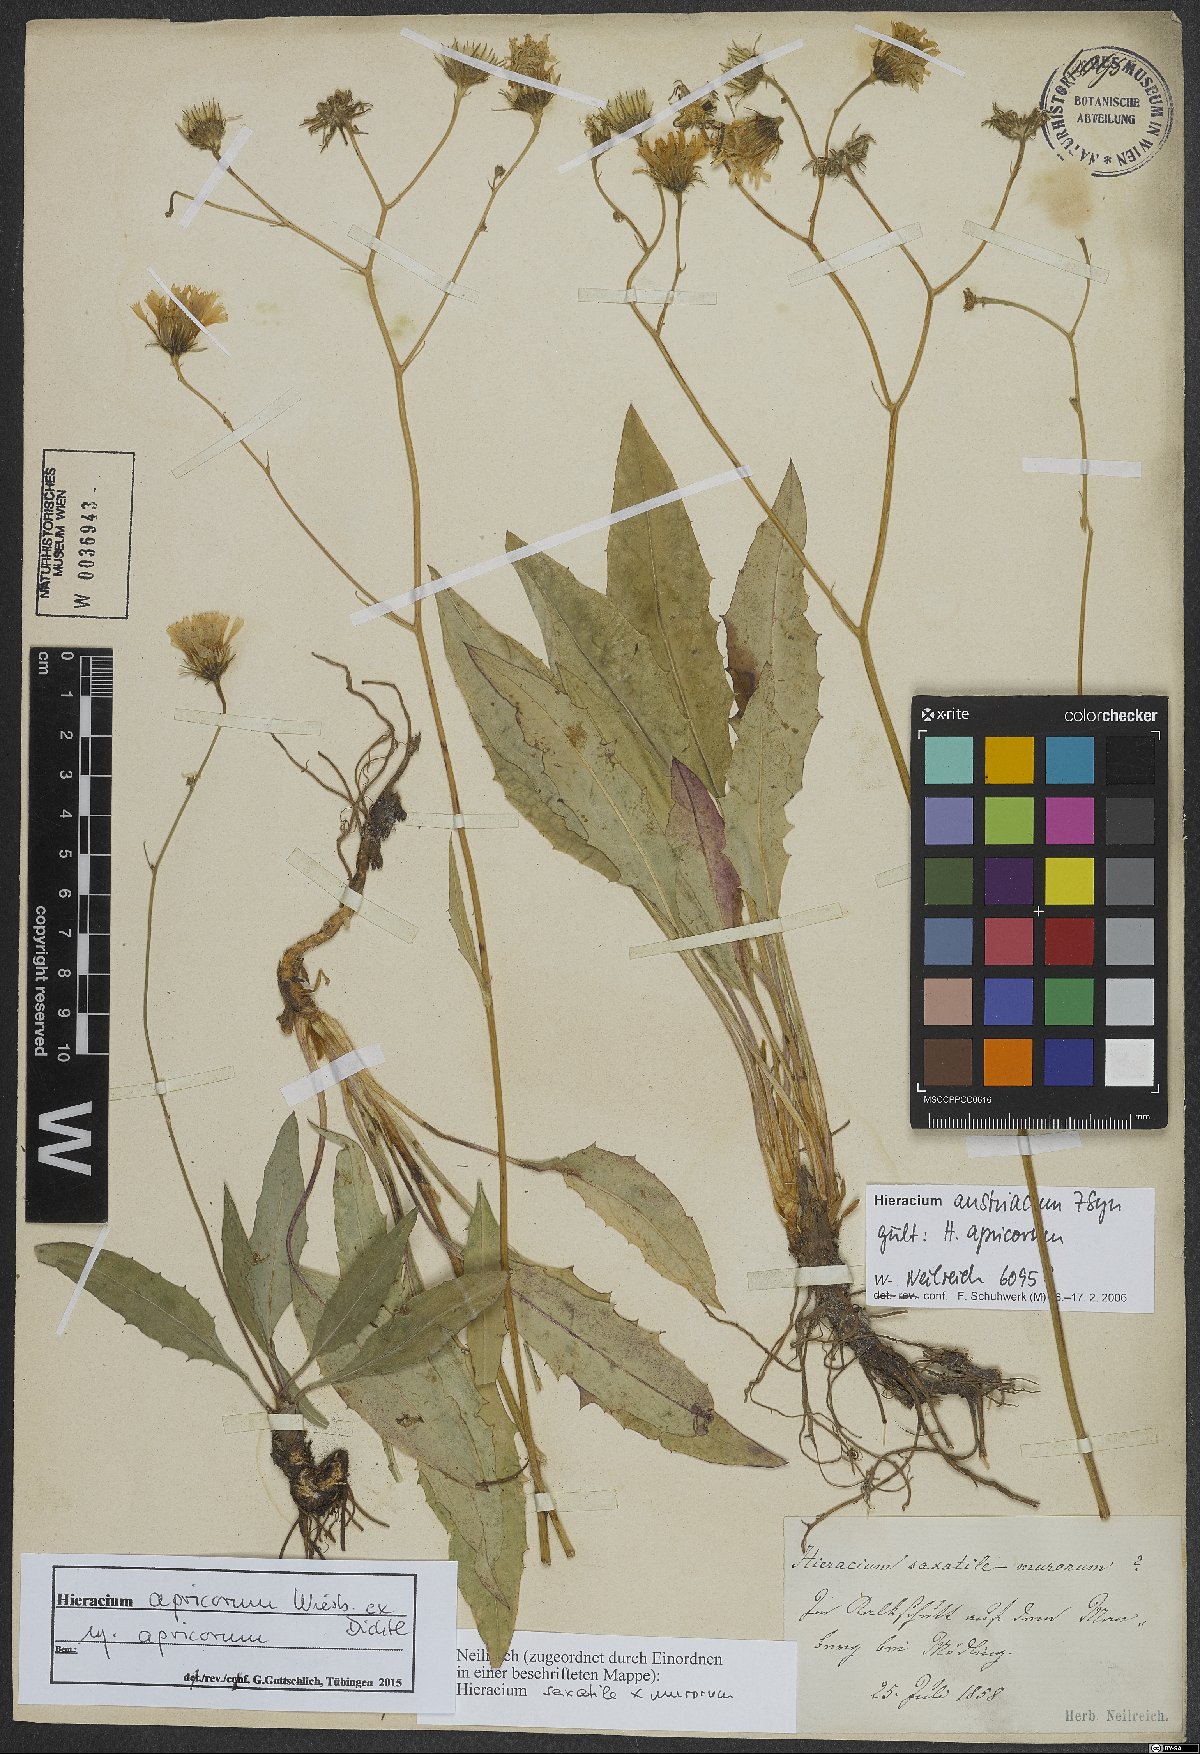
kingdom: Plantae
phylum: Tracheophyta
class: Magnoliopsida
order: Asterales
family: Asteraceae
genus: Hieracium
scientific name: Hieracium apricorum
